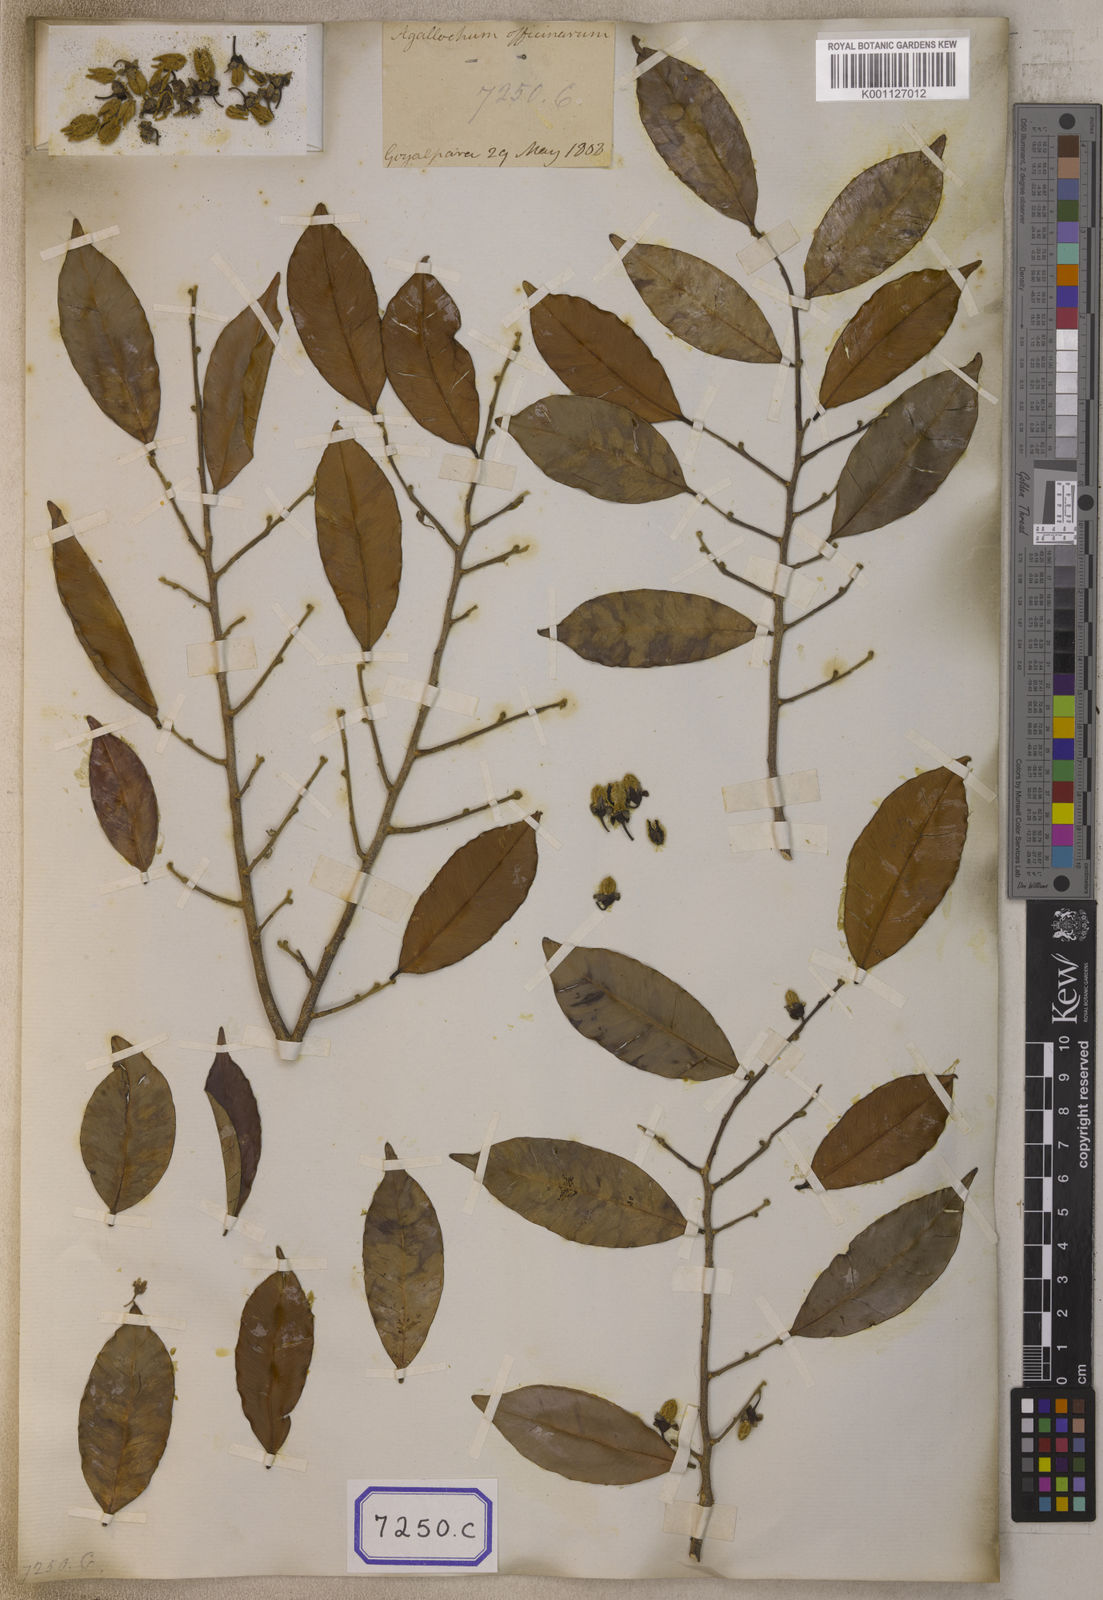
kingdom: Plantae
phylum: Tracheophyta
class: Magnoliopsida
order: Malvales
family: Thymelaeaceae
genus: Aquilaria
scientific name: Aquilaria agallocha
